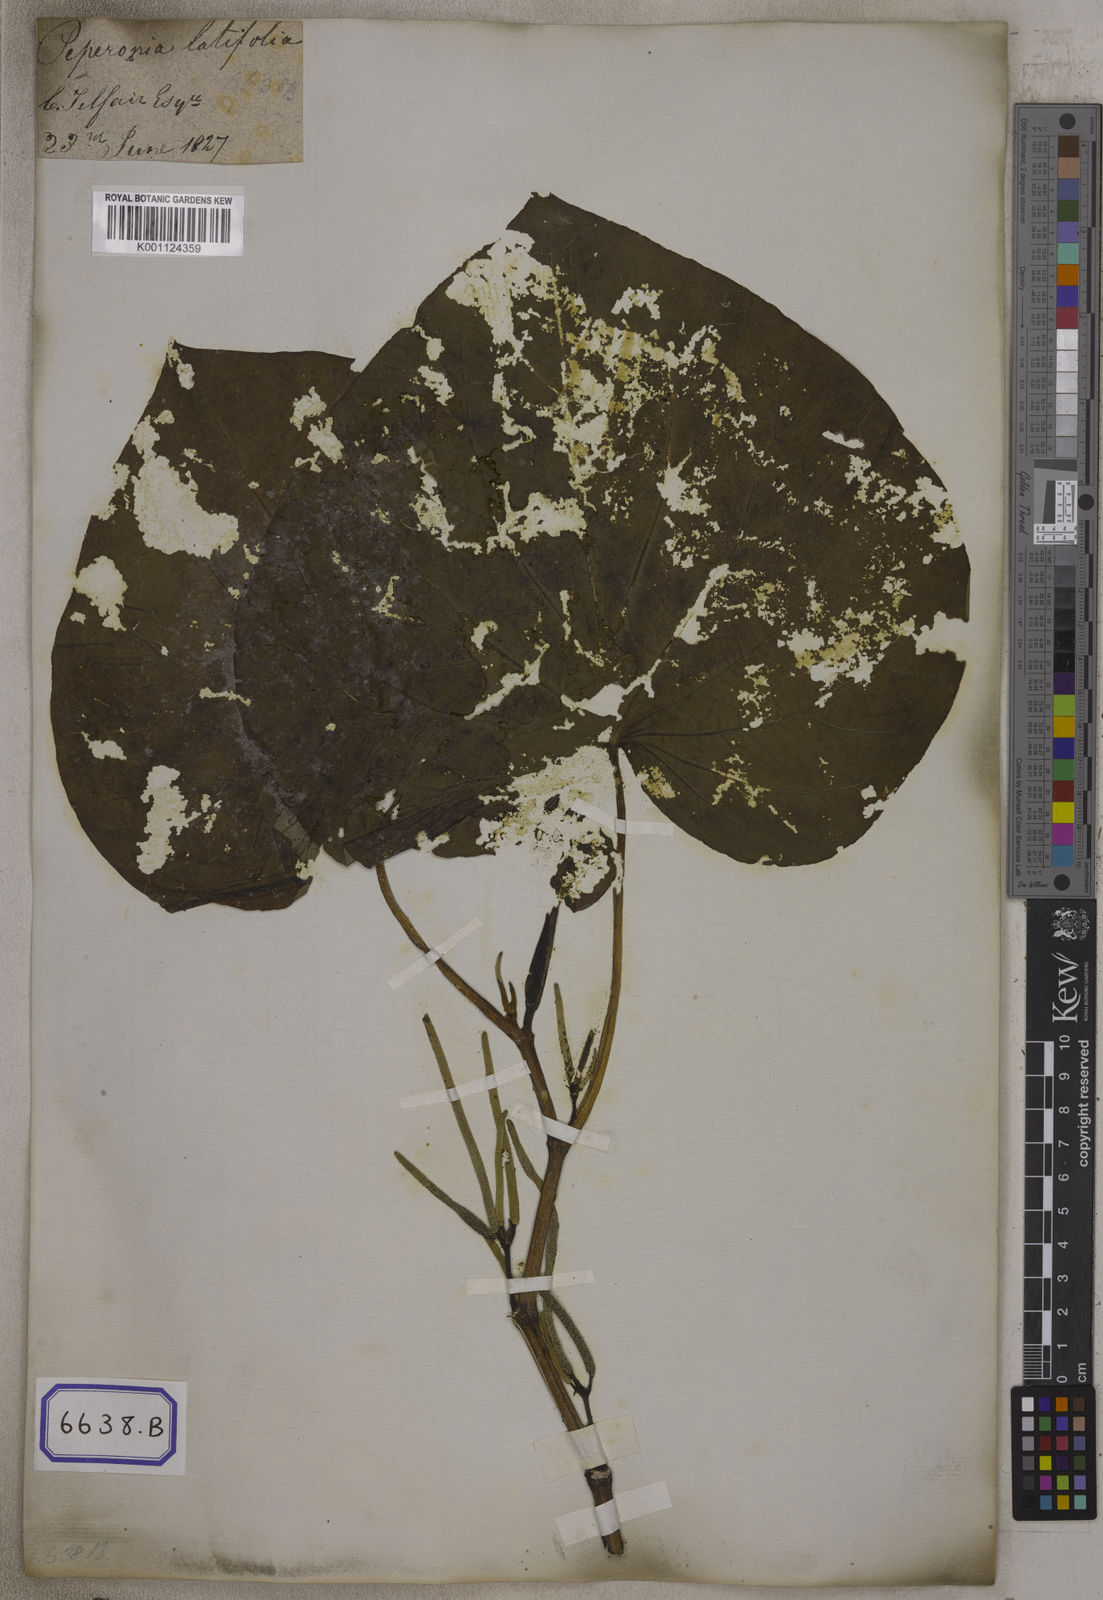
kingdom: Plantae
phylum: Tracheophyta
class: Magnoliopsida
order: Piperales
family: Piperaceae
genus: Piper
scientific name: Piper umbellatum
